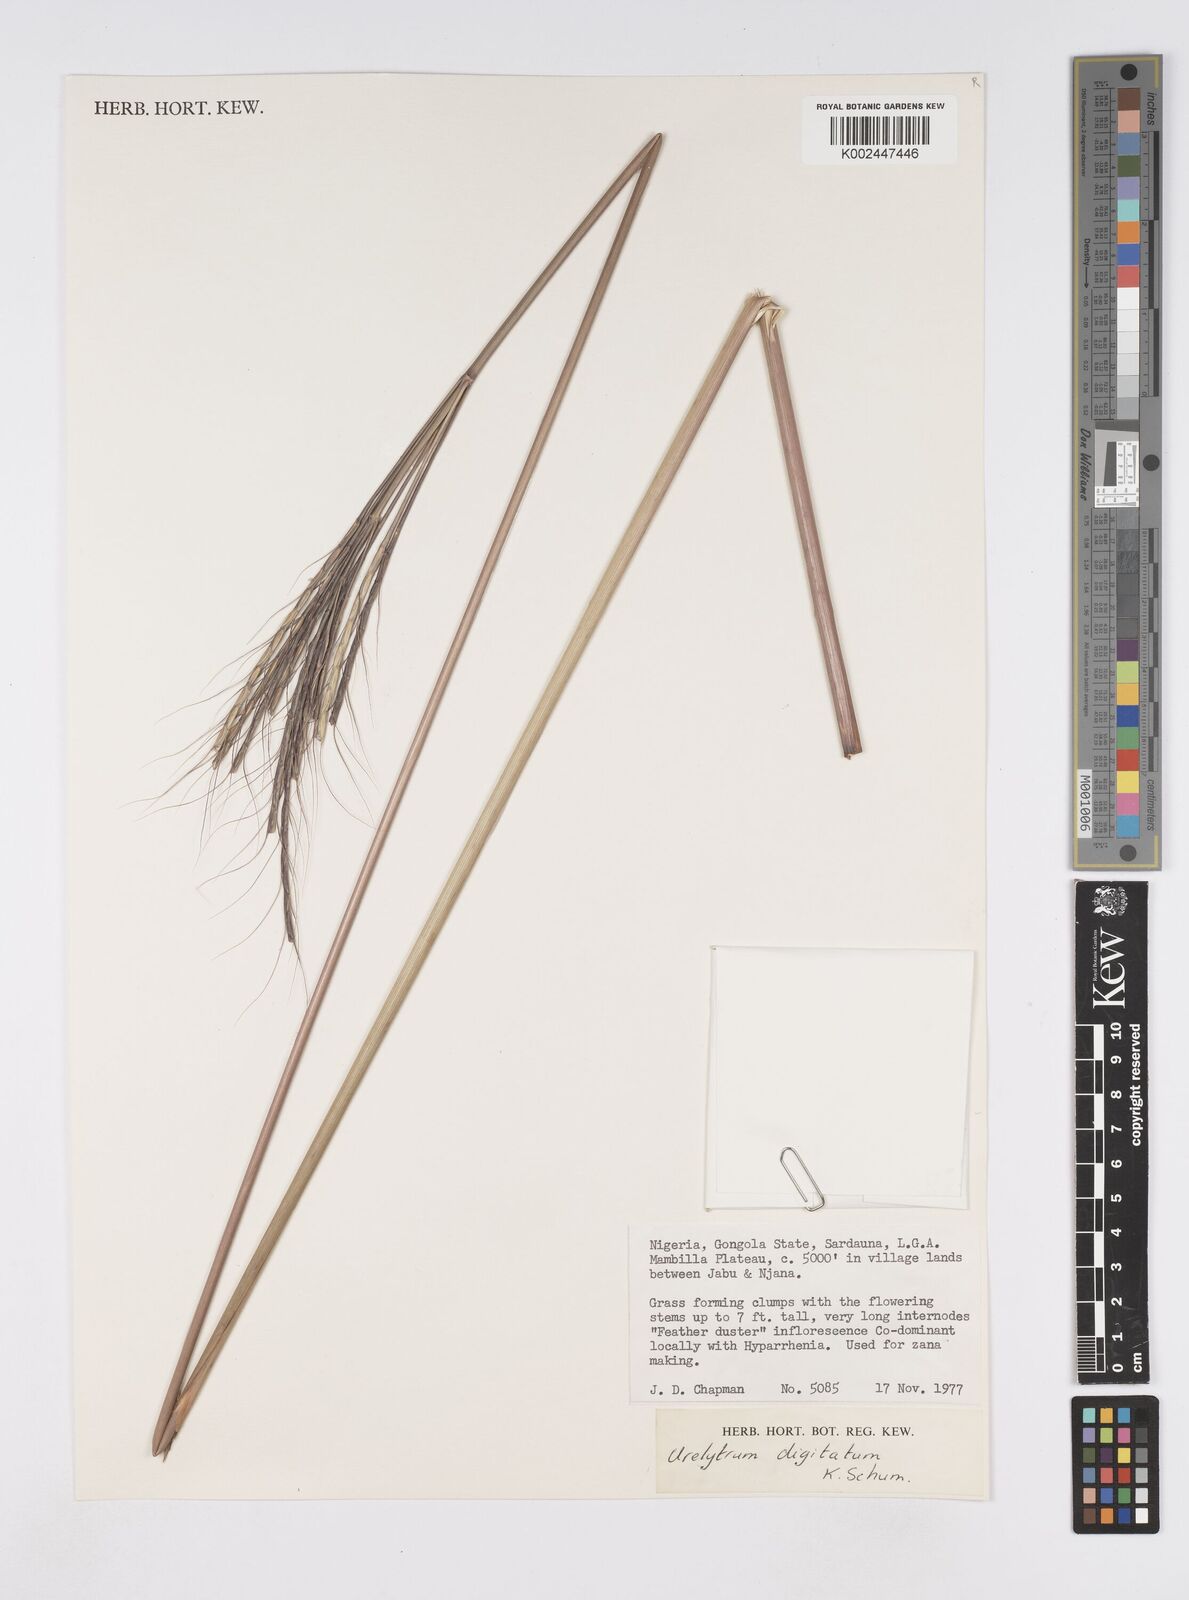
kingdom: Plantae
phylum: Tracheophyta
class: Liliopsida
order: Poales
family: Poaceae
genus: Urelytrum
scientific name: Urelytrum digitatum
